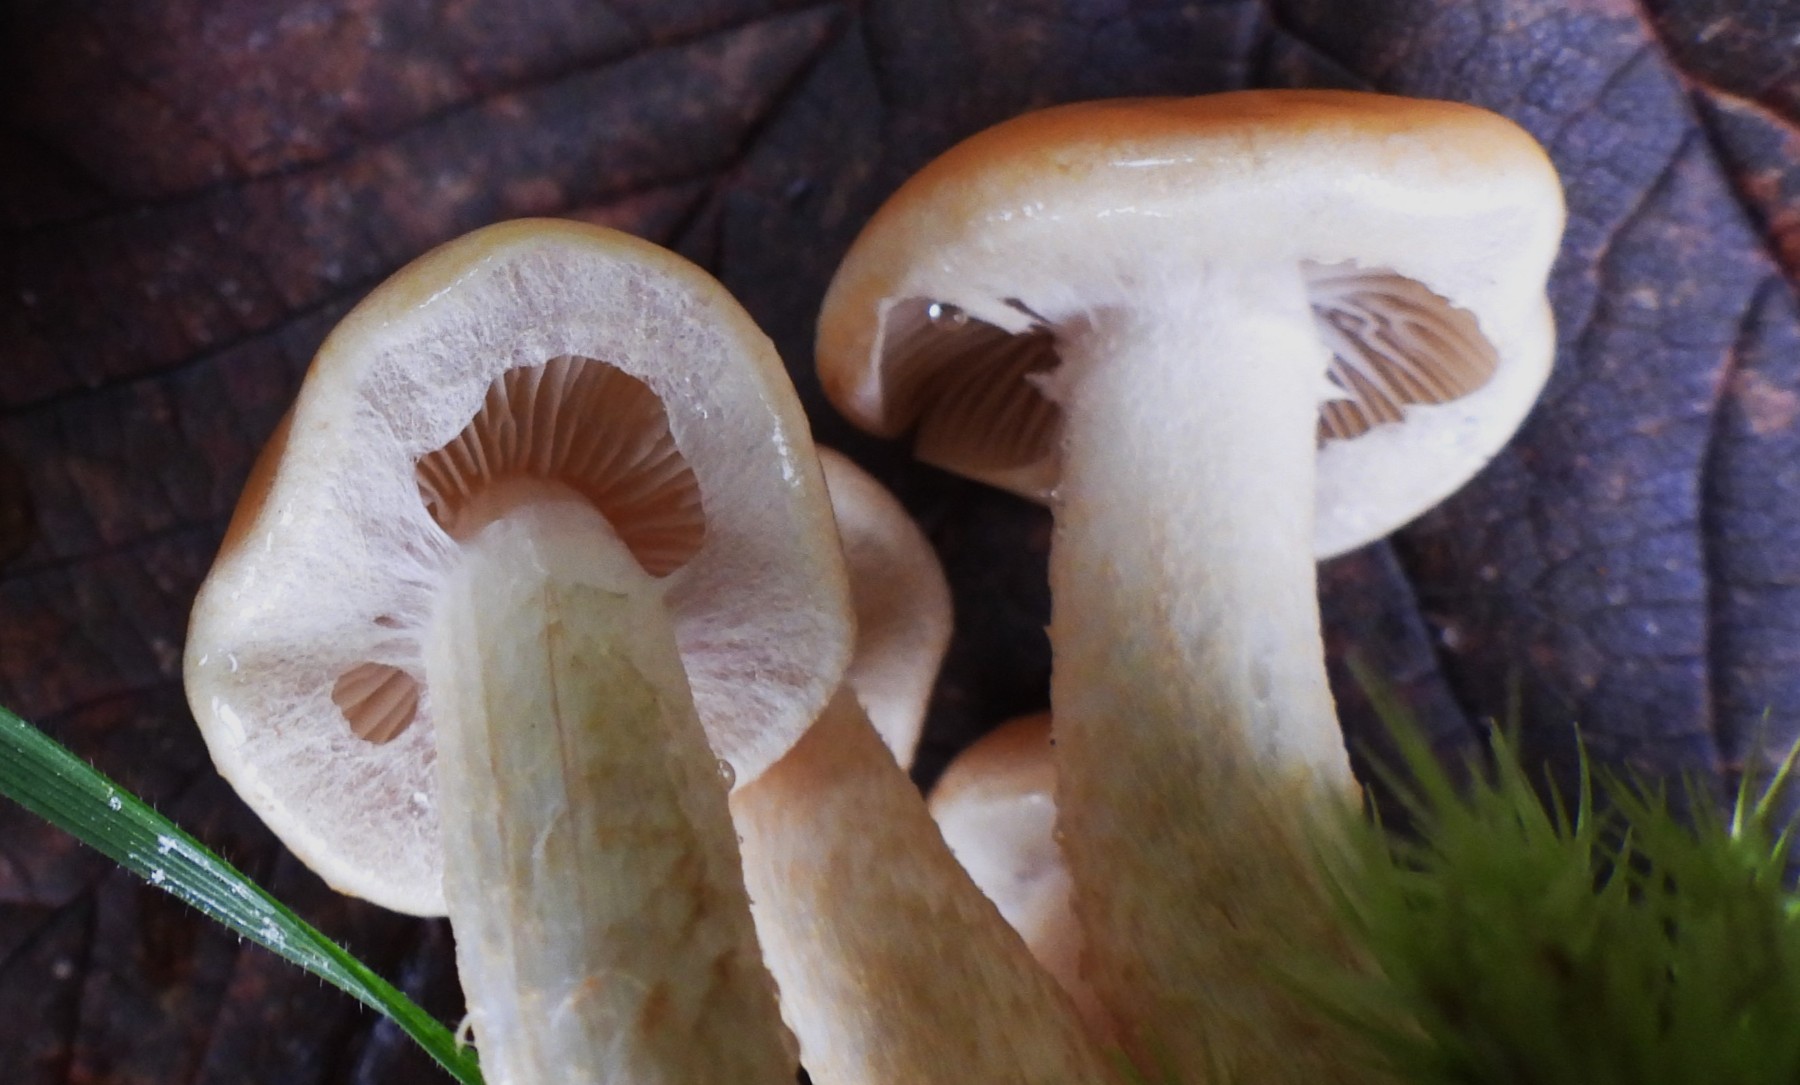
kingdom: Fungi
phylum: Basidiomycota
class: Agaricomycetes
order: Agaricales
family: Strophariaceae
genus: Hypholoma
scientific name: Hypholoma capnoides
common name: gran-svovlhat
